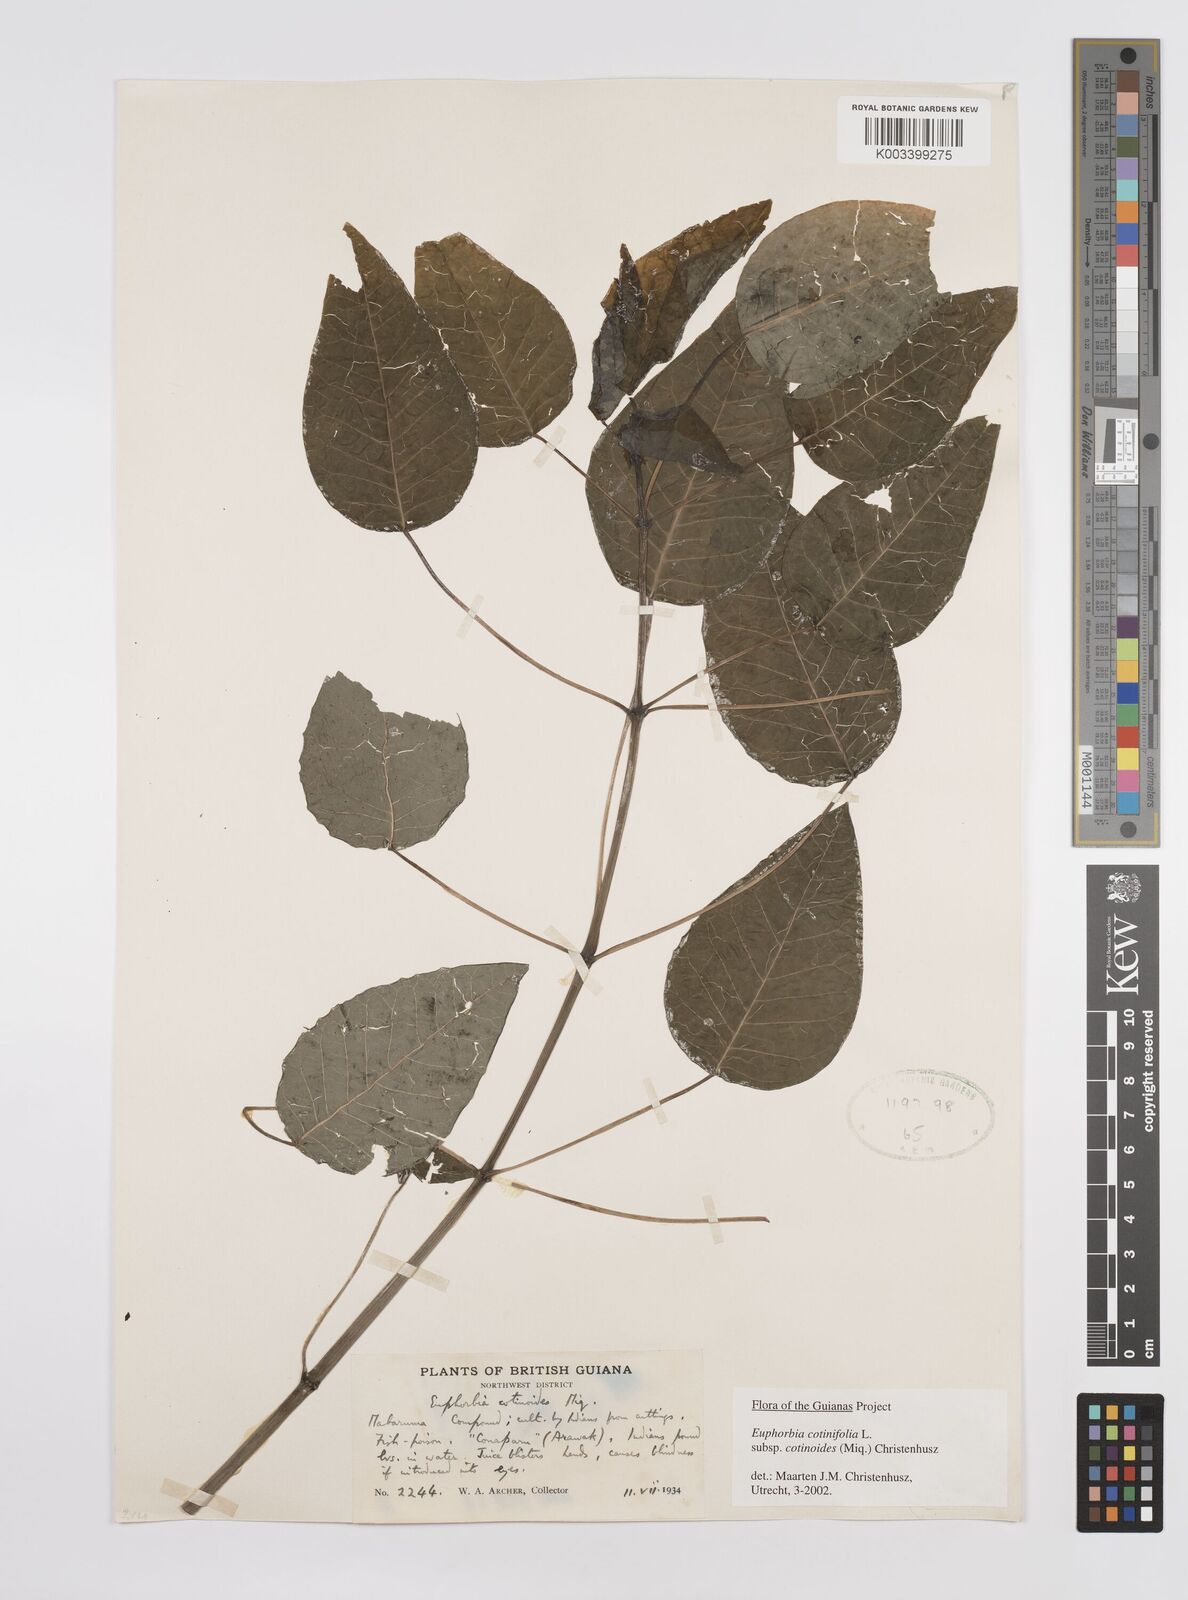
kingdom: Plantae
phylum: Tracheophyta
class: Magnoliopsida
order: Malpighiales
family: Euphorbiaceae
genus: Euphorbia
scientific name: Euphorbia cotinifolia
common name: Tropical smokebush
